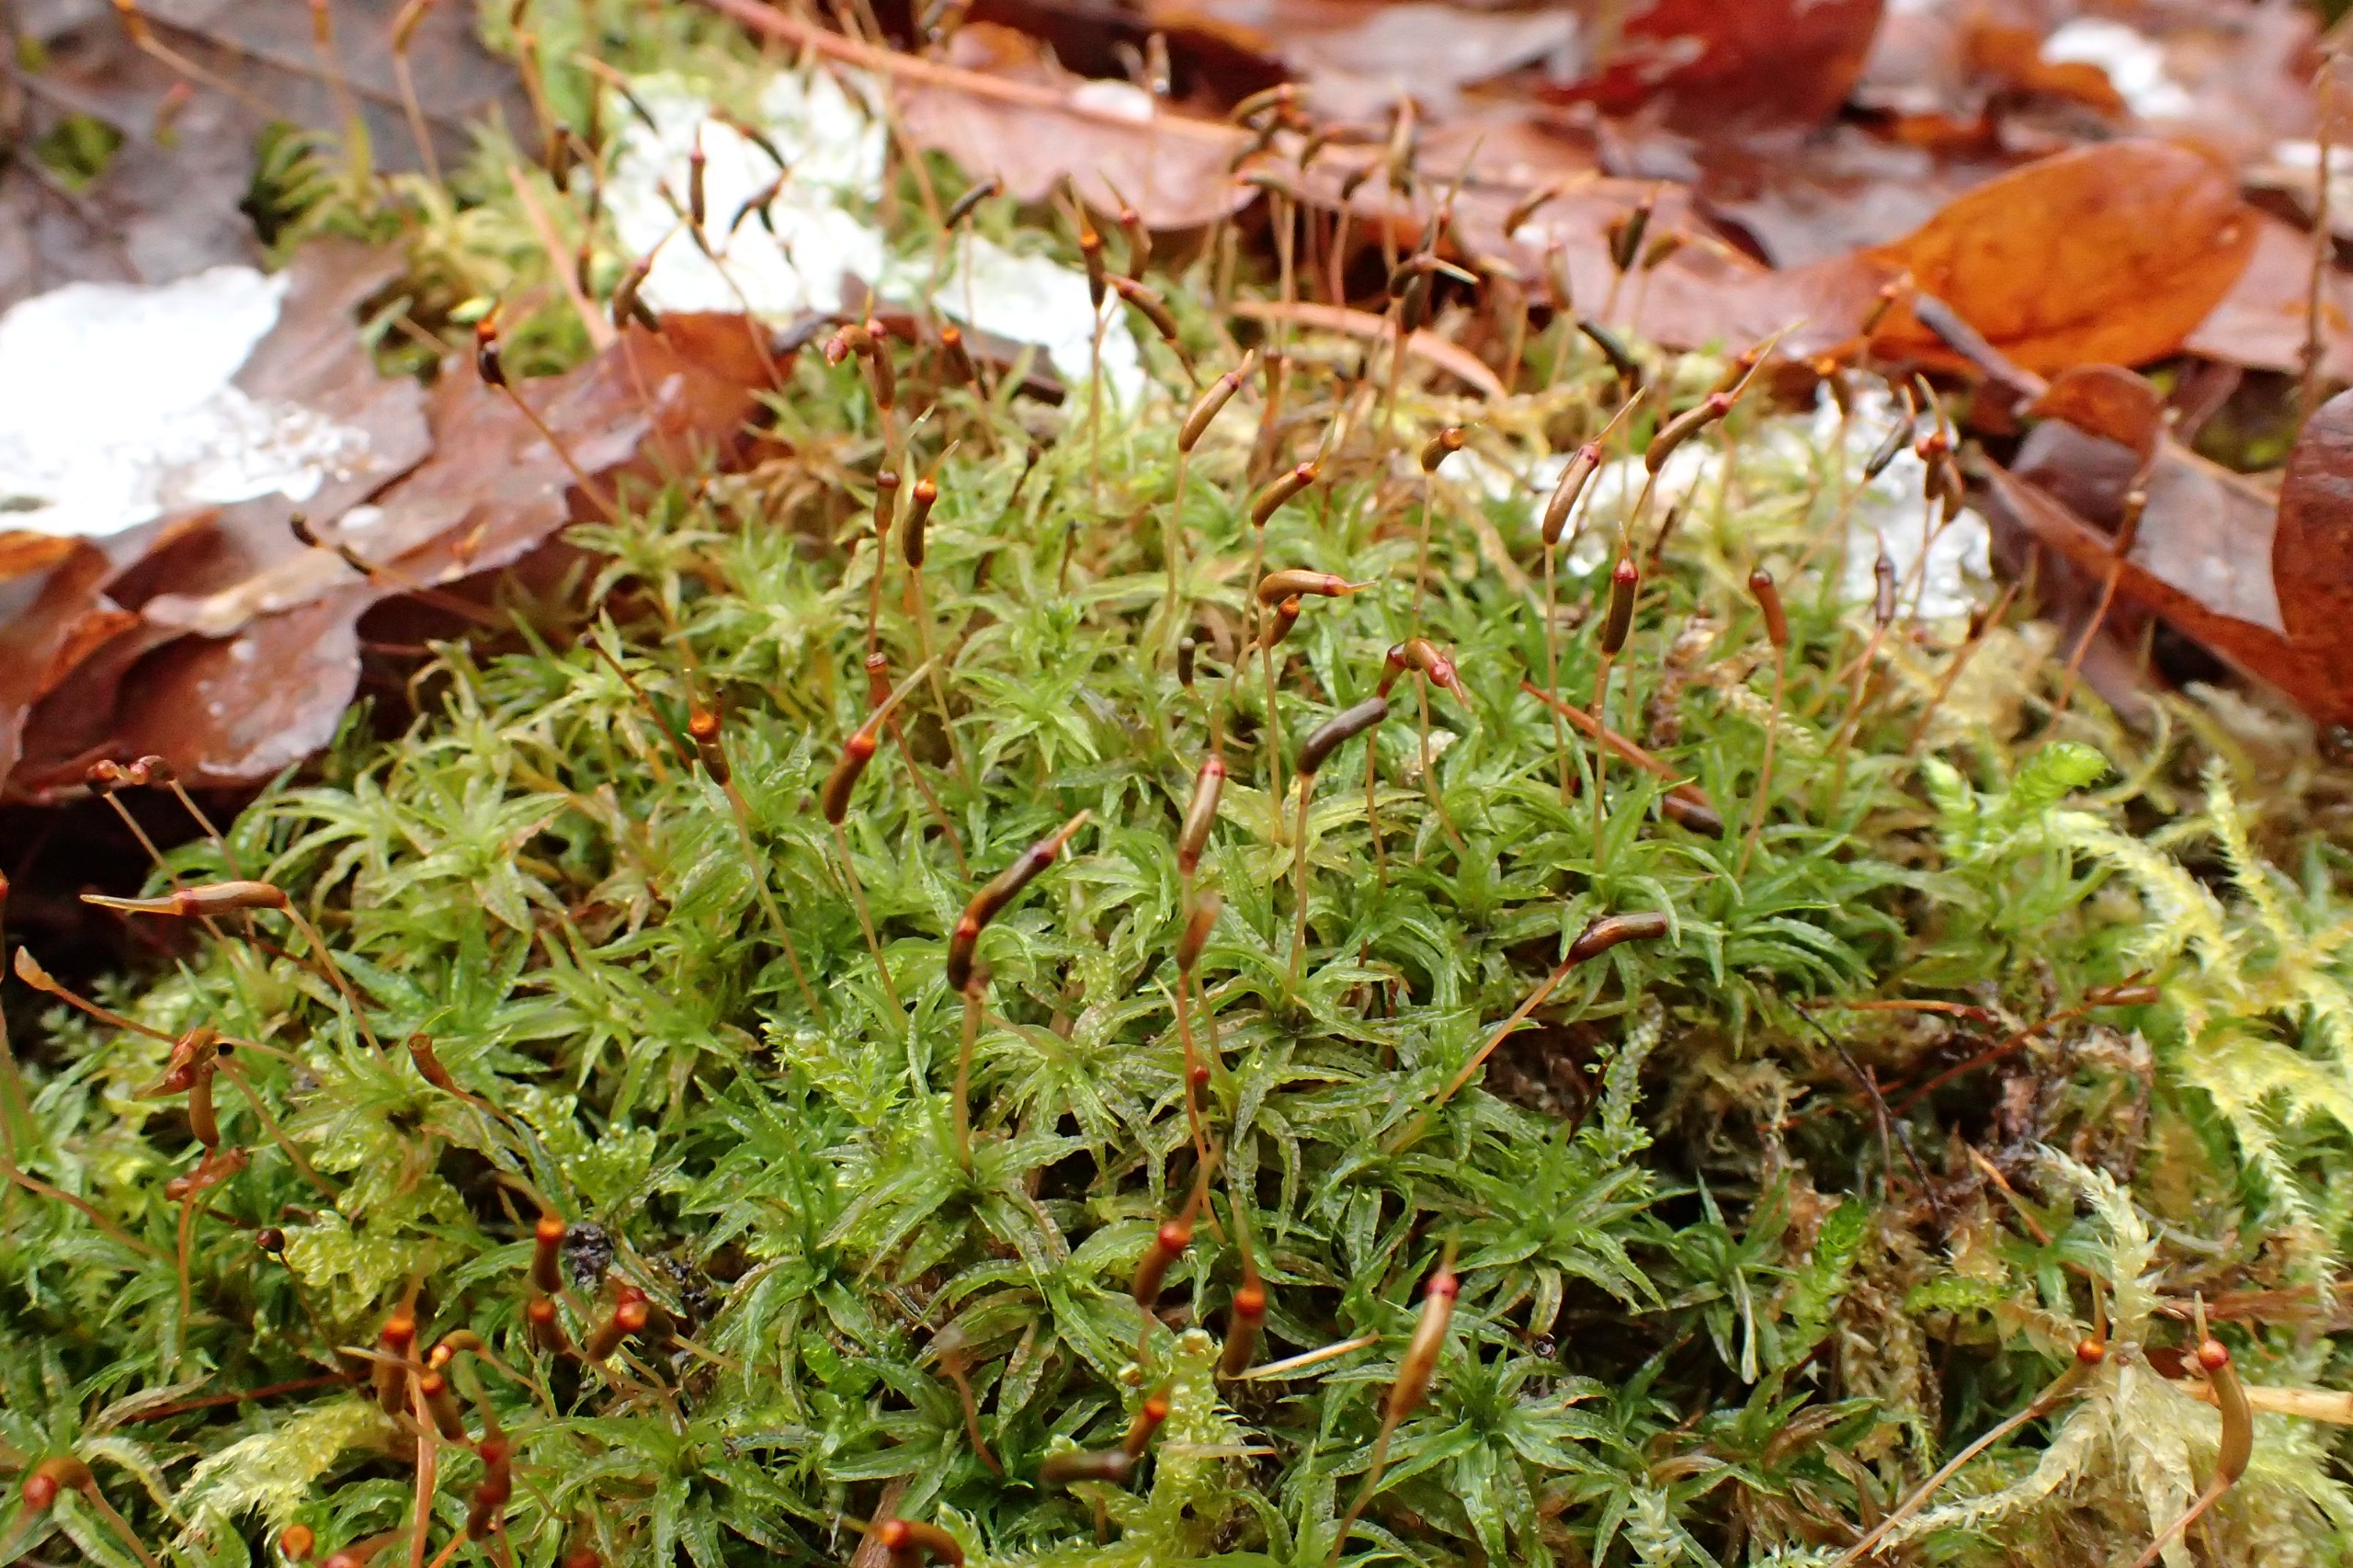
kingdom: Plantae
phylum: Bryophyta
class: Polytrichopsida
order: Polytrichales
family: Polytrichaceae
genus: Atrichum
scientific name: Atrichum undulatum
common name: Bølget katrinemos
